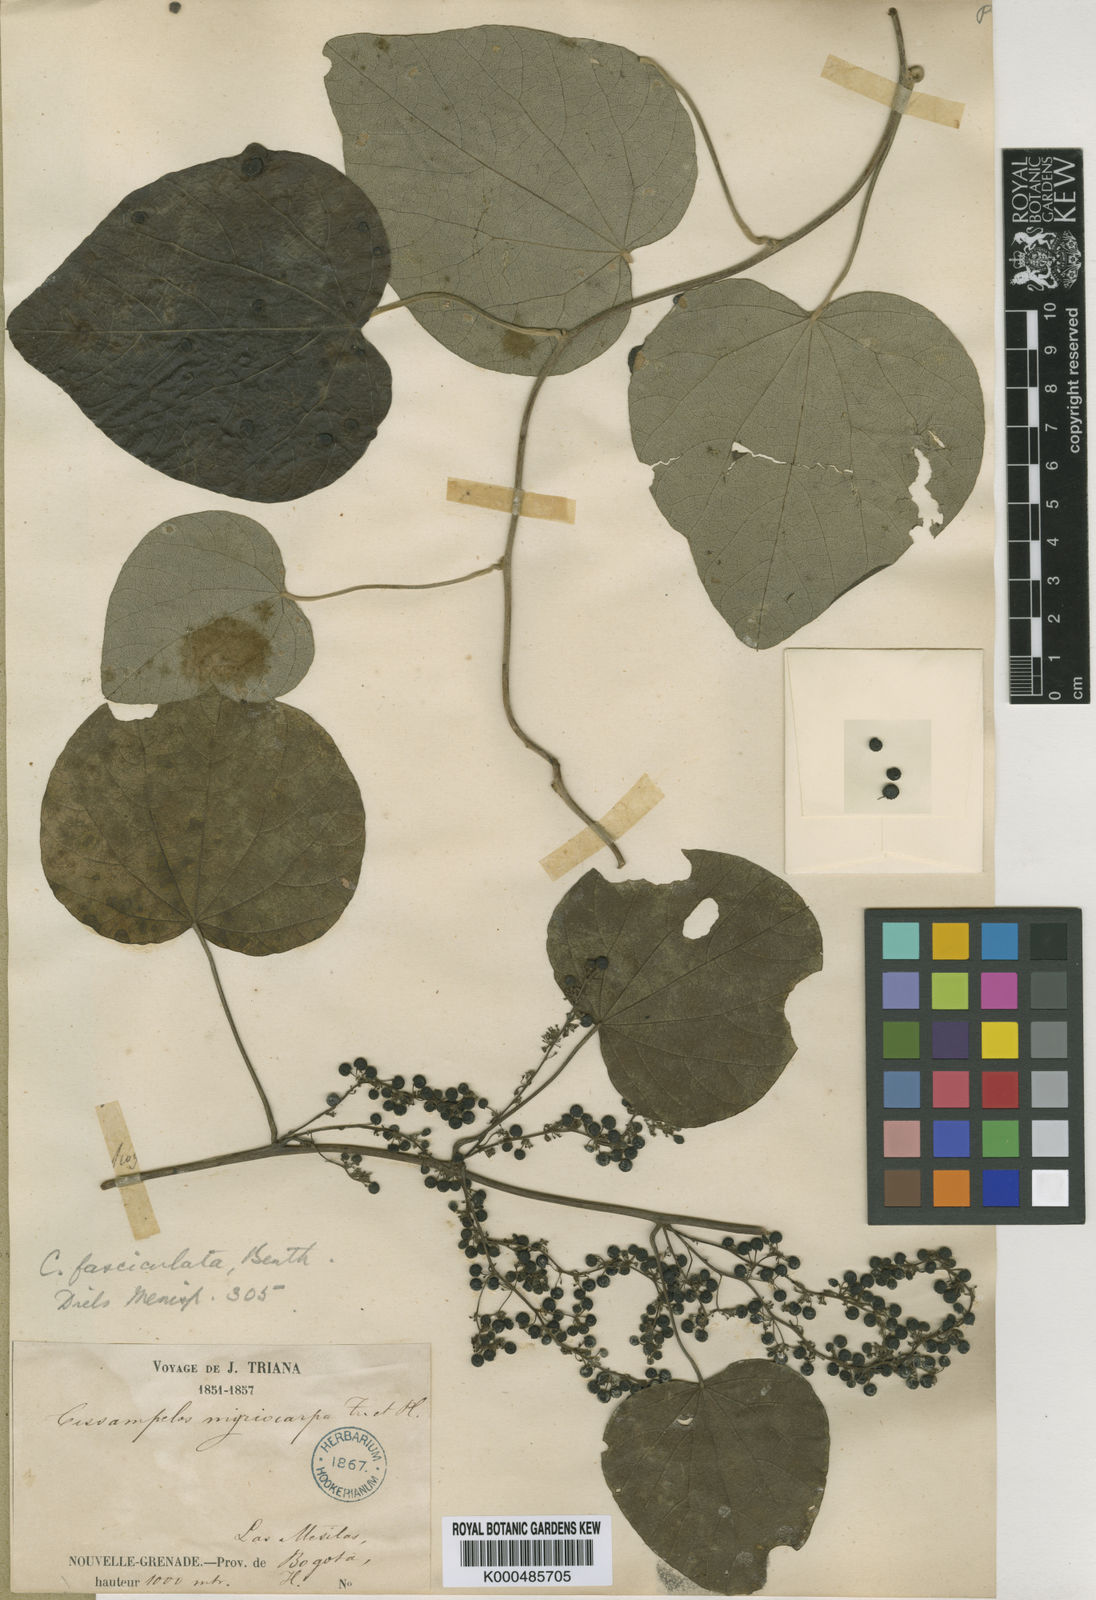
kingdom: Plantae
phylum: Tracheophyta
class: Magnoliopsida
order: Ranunculales
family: Menispermaceae
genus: Cissampelos
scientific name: Cissampelos fasciculata
